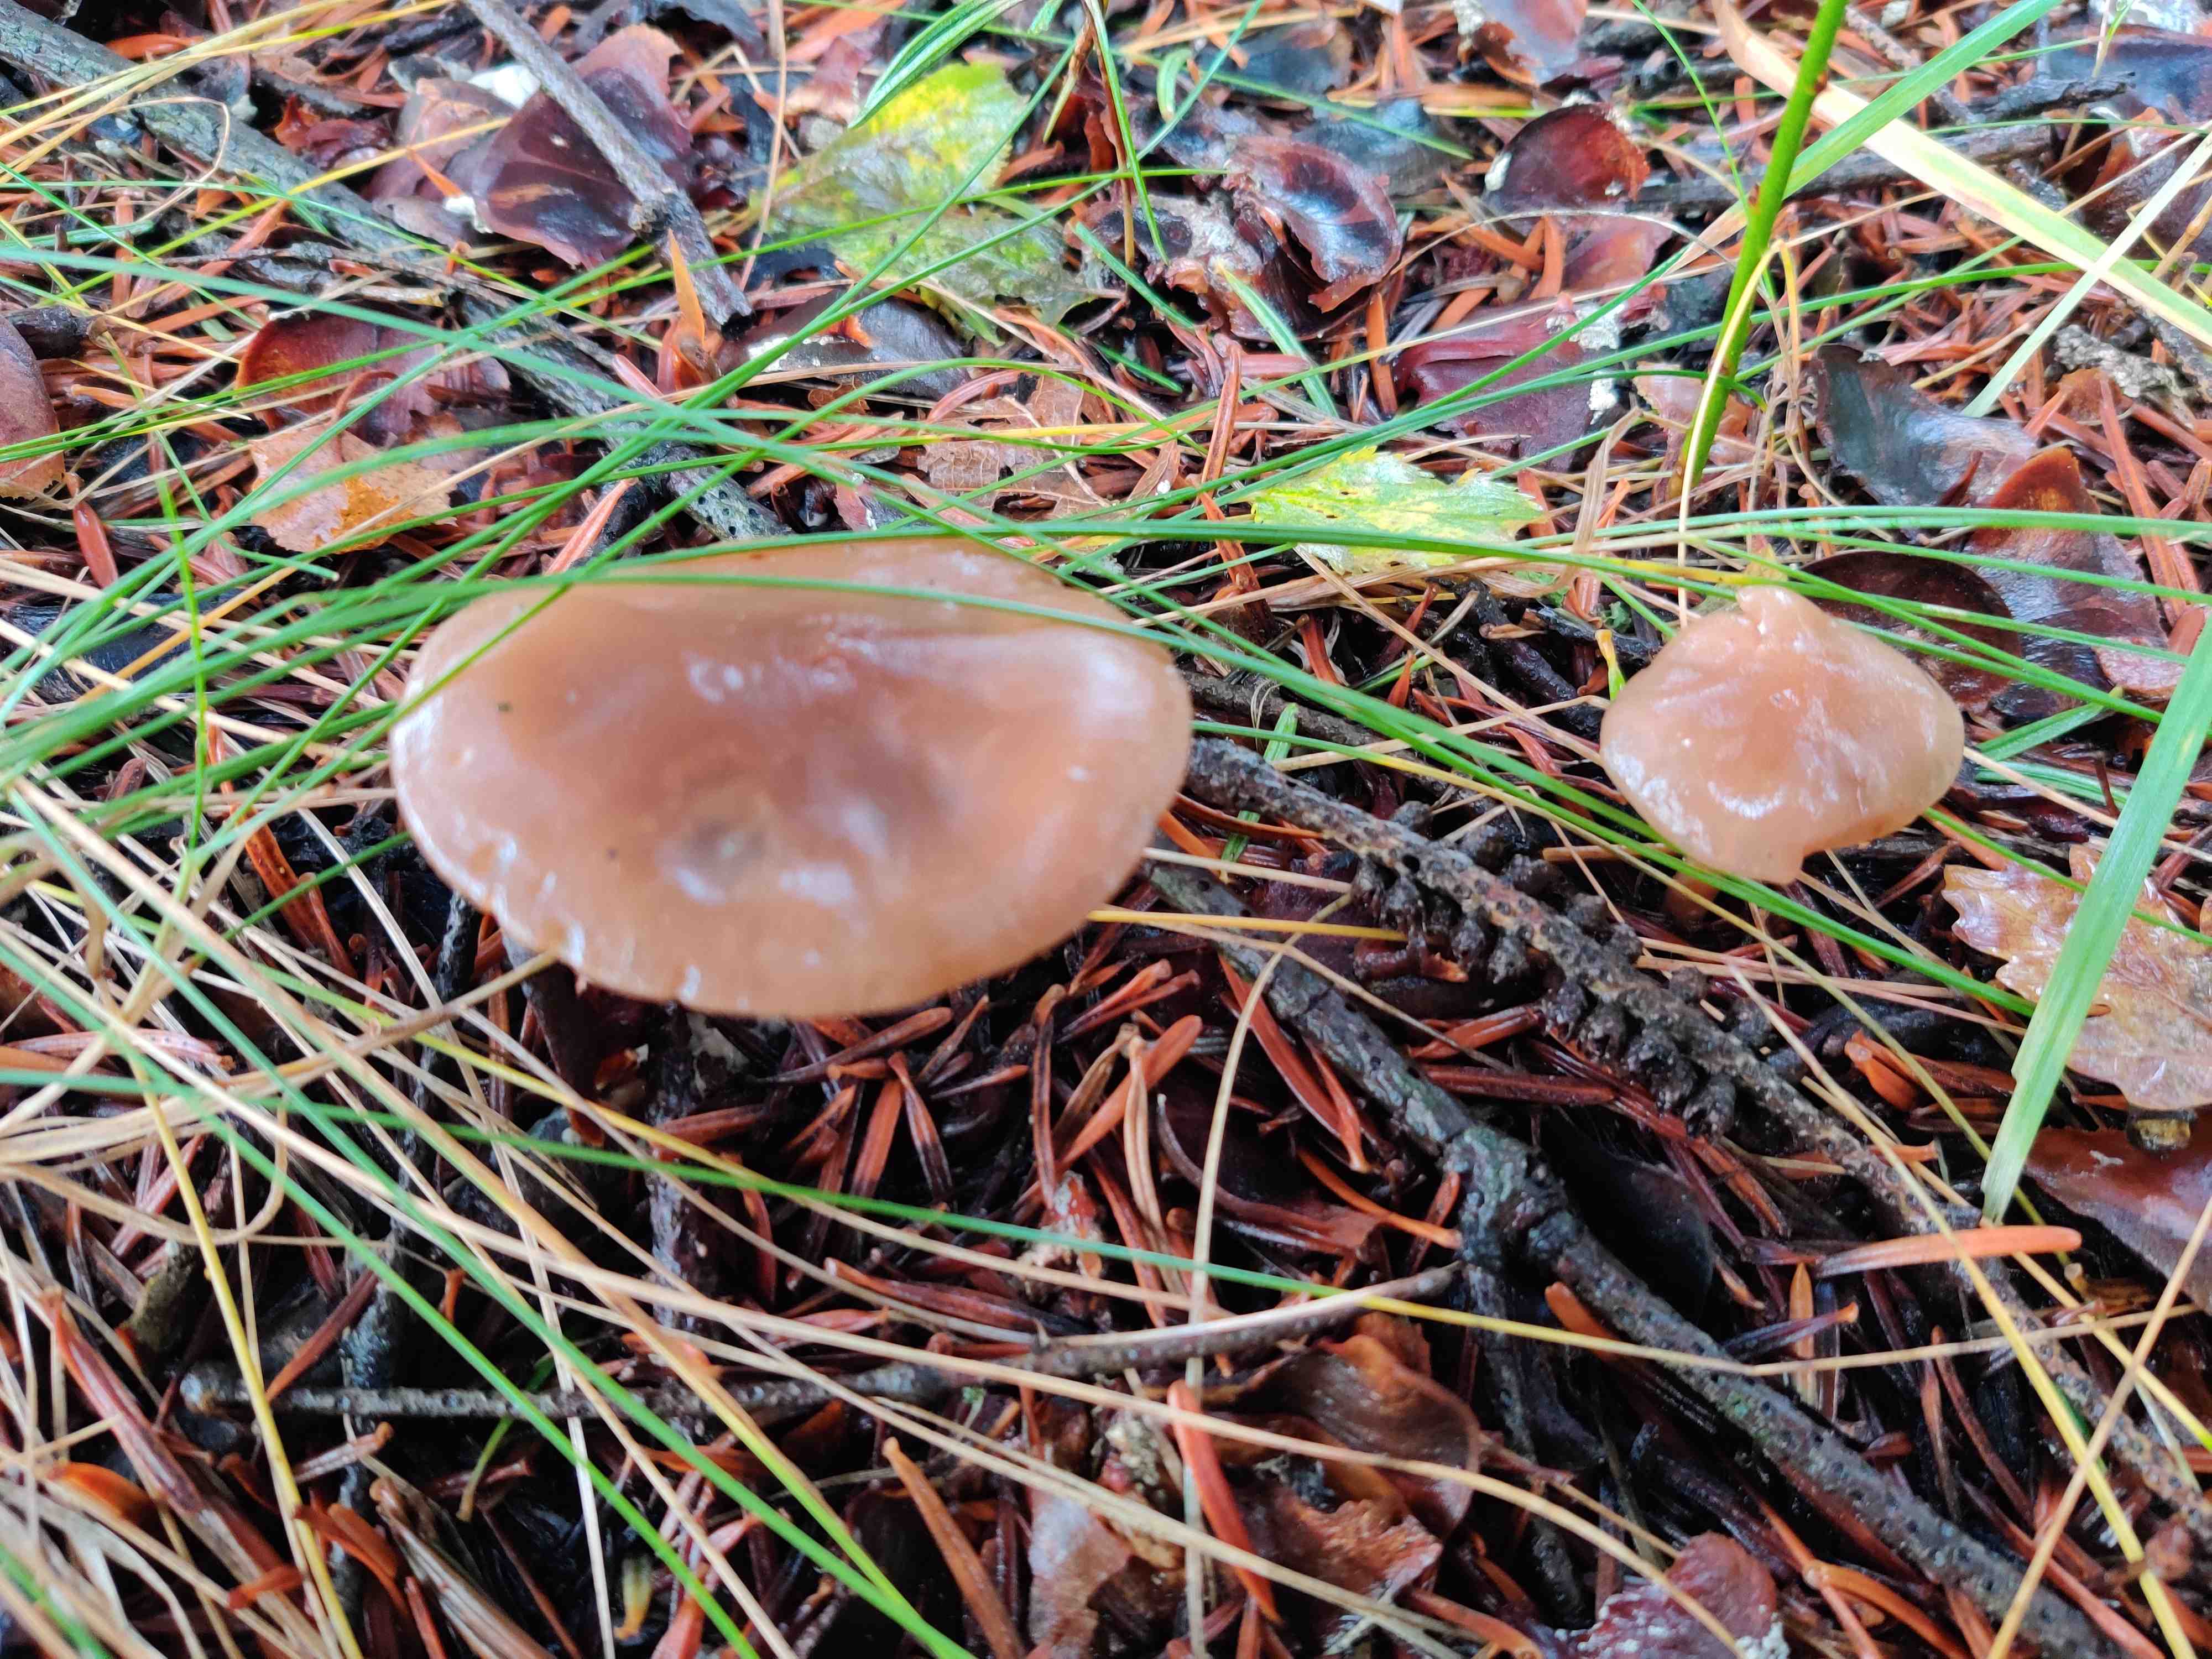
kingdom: Fungi
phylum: Basidiomycota
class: Agaricomycetes
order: Agaricales
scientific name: Agaricales
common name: champignonordenen
